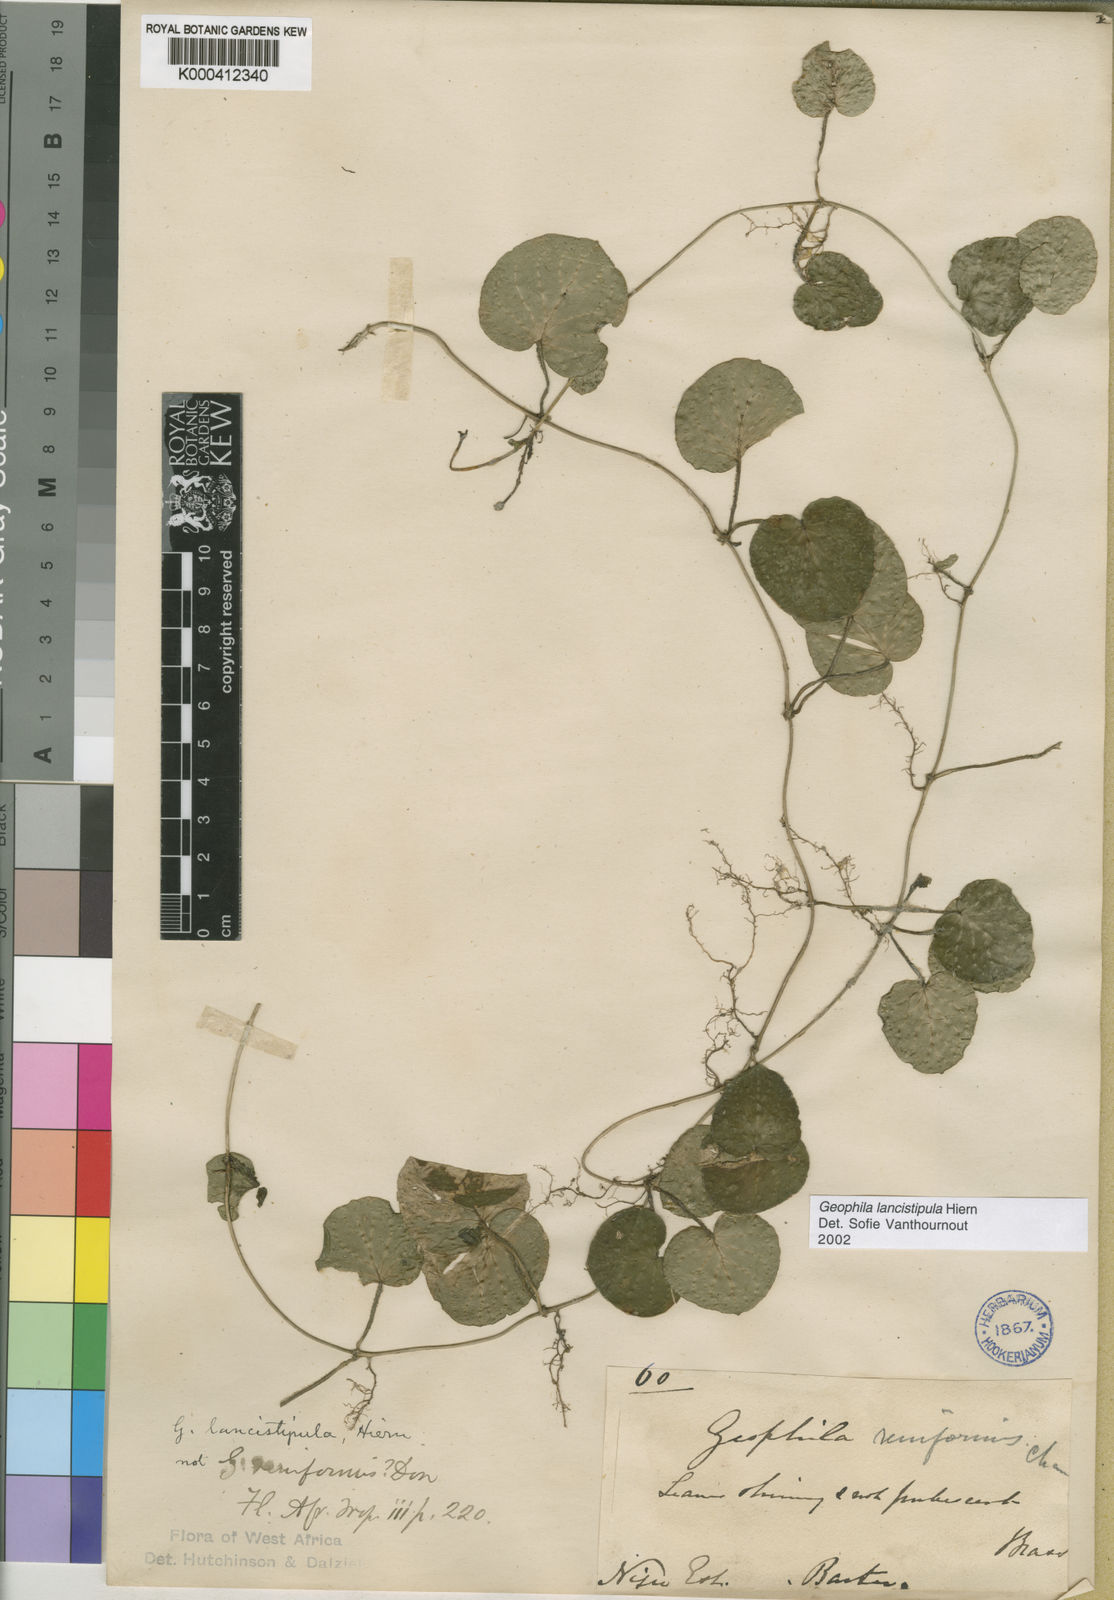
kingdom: Plantae
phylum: Tracheophyta
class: Magnoliopsida
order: Gentianales
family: Rubiaceae
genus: Geophila
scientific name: Geophila lancistipula
